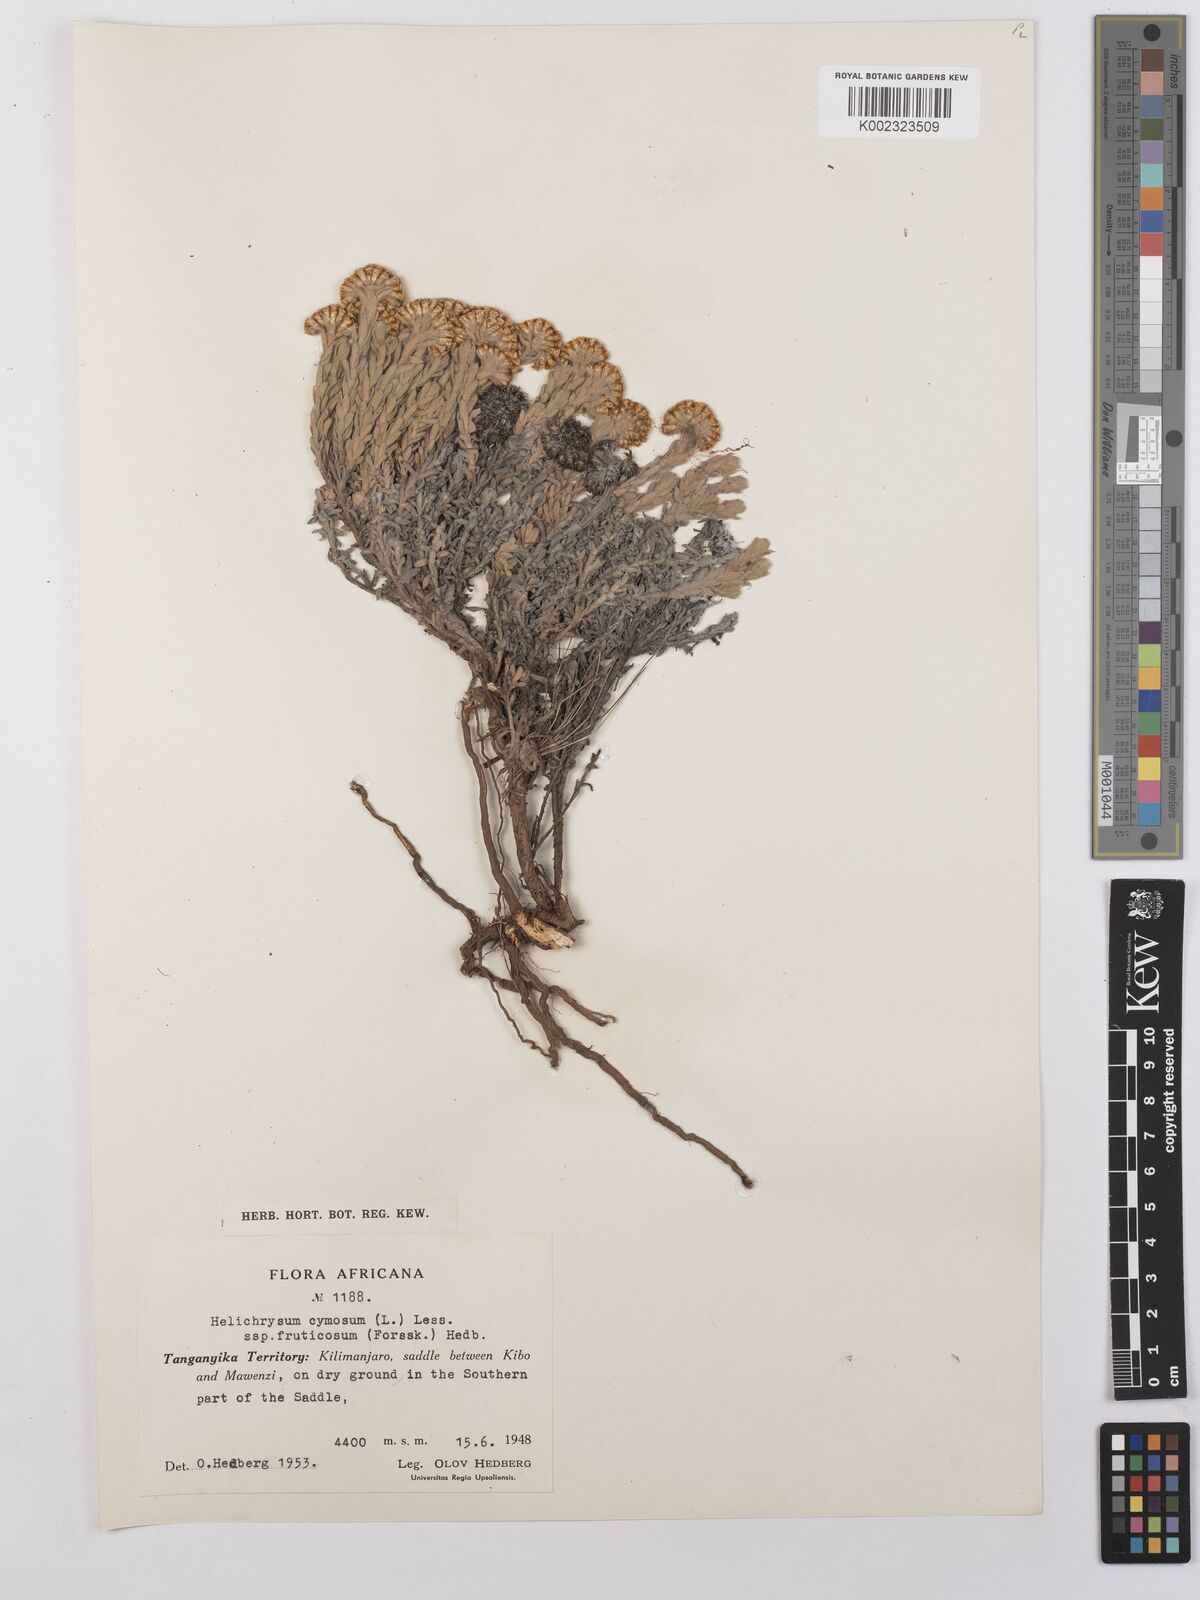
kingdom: Plantae
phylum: Tracheophyta
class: Magnoliopsida
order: Asterales
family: Asteraceae
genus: Helichrysum
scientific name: Helichrysum forskahlii
